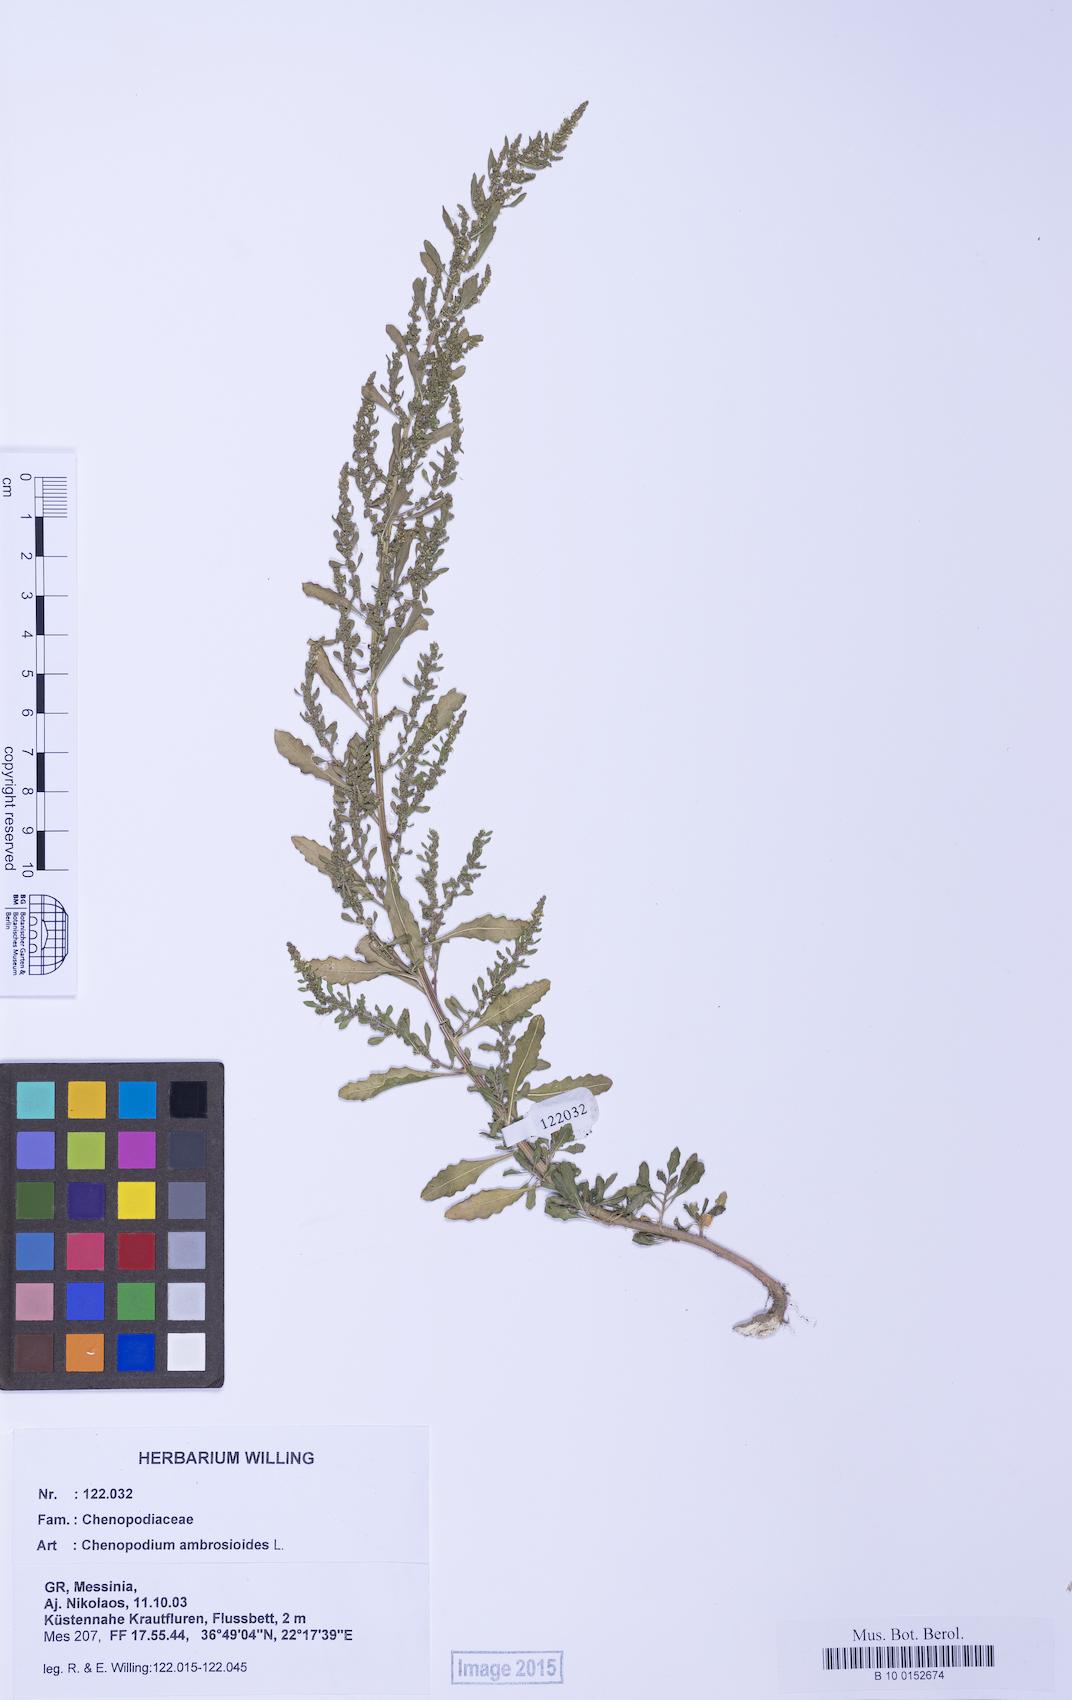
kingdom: Plantae
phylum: Tracheophyta
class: Magnoliopsida
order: Caryophyllales
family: Amaranthaceae
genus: Dysphania
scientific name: Dysphania ambrosioides
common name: Wormseed
